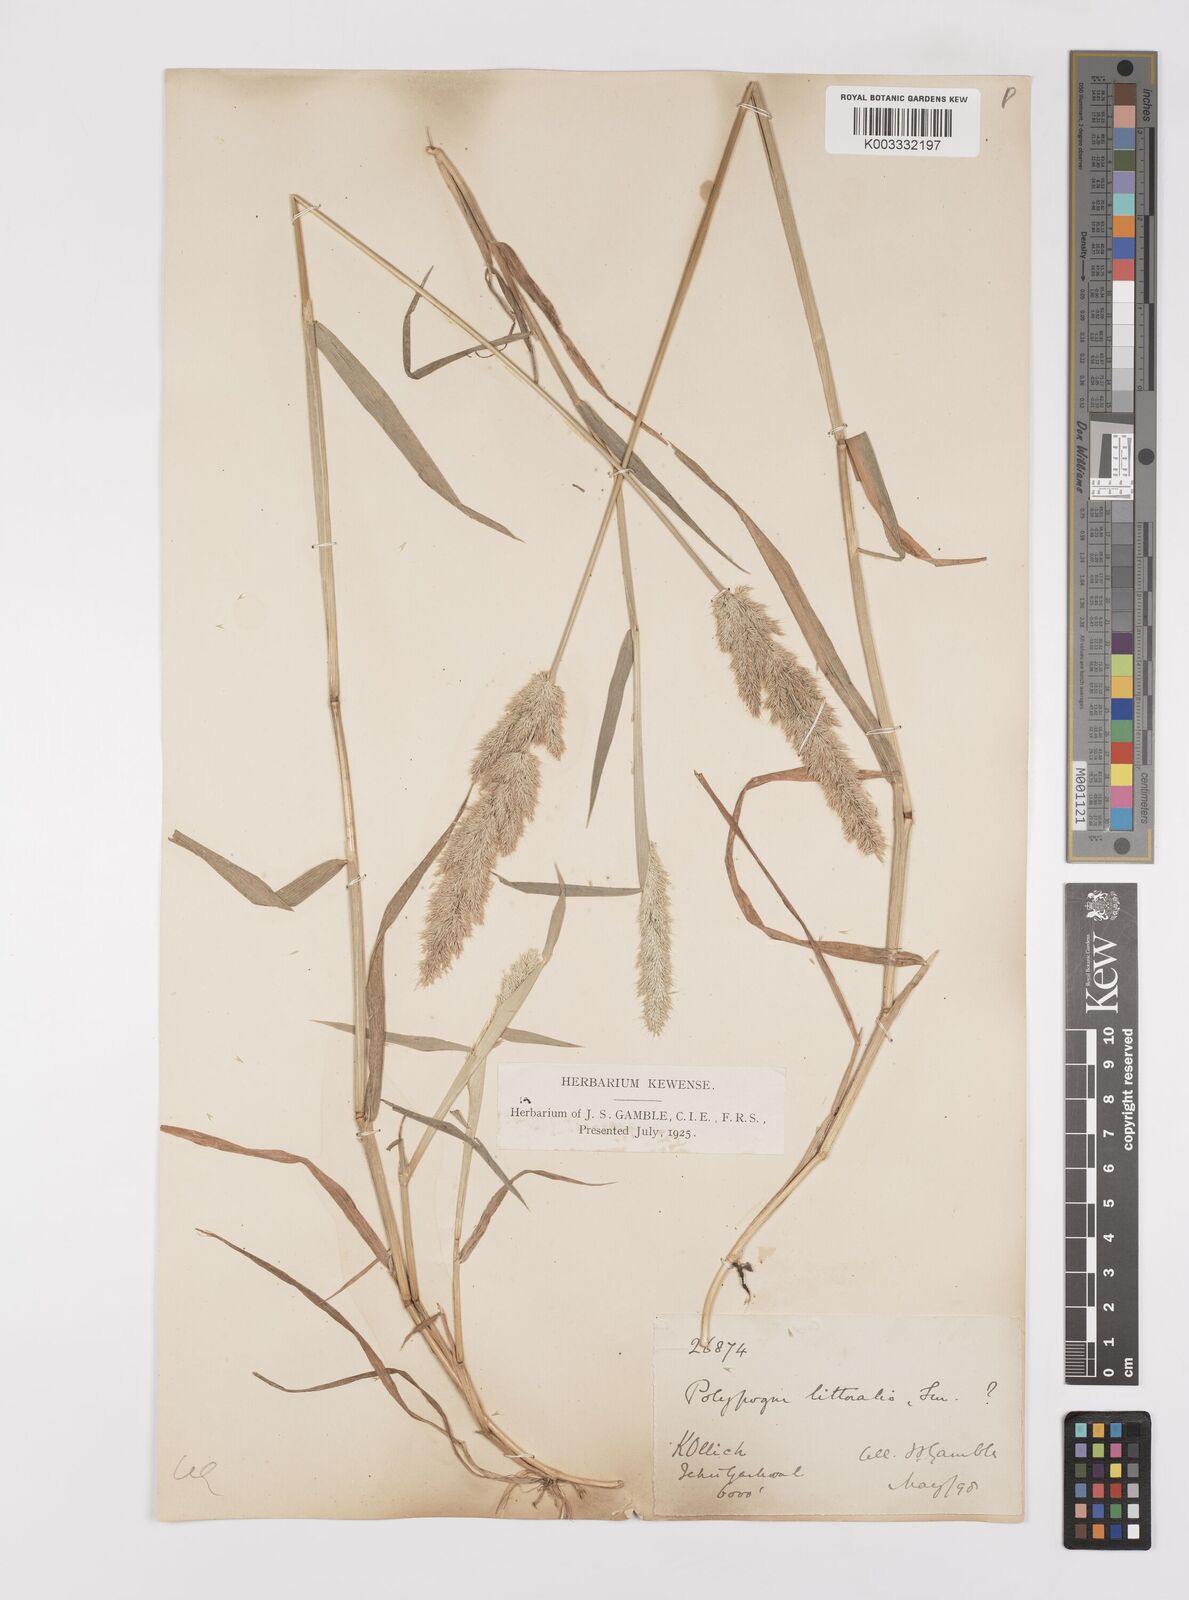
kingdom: Plantae
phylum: Tracheophyta
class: Liliopsida
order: Poales
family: Poaceae
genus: Polypogon
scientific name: Polypogon fugax
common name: Asia minor bluegrass
